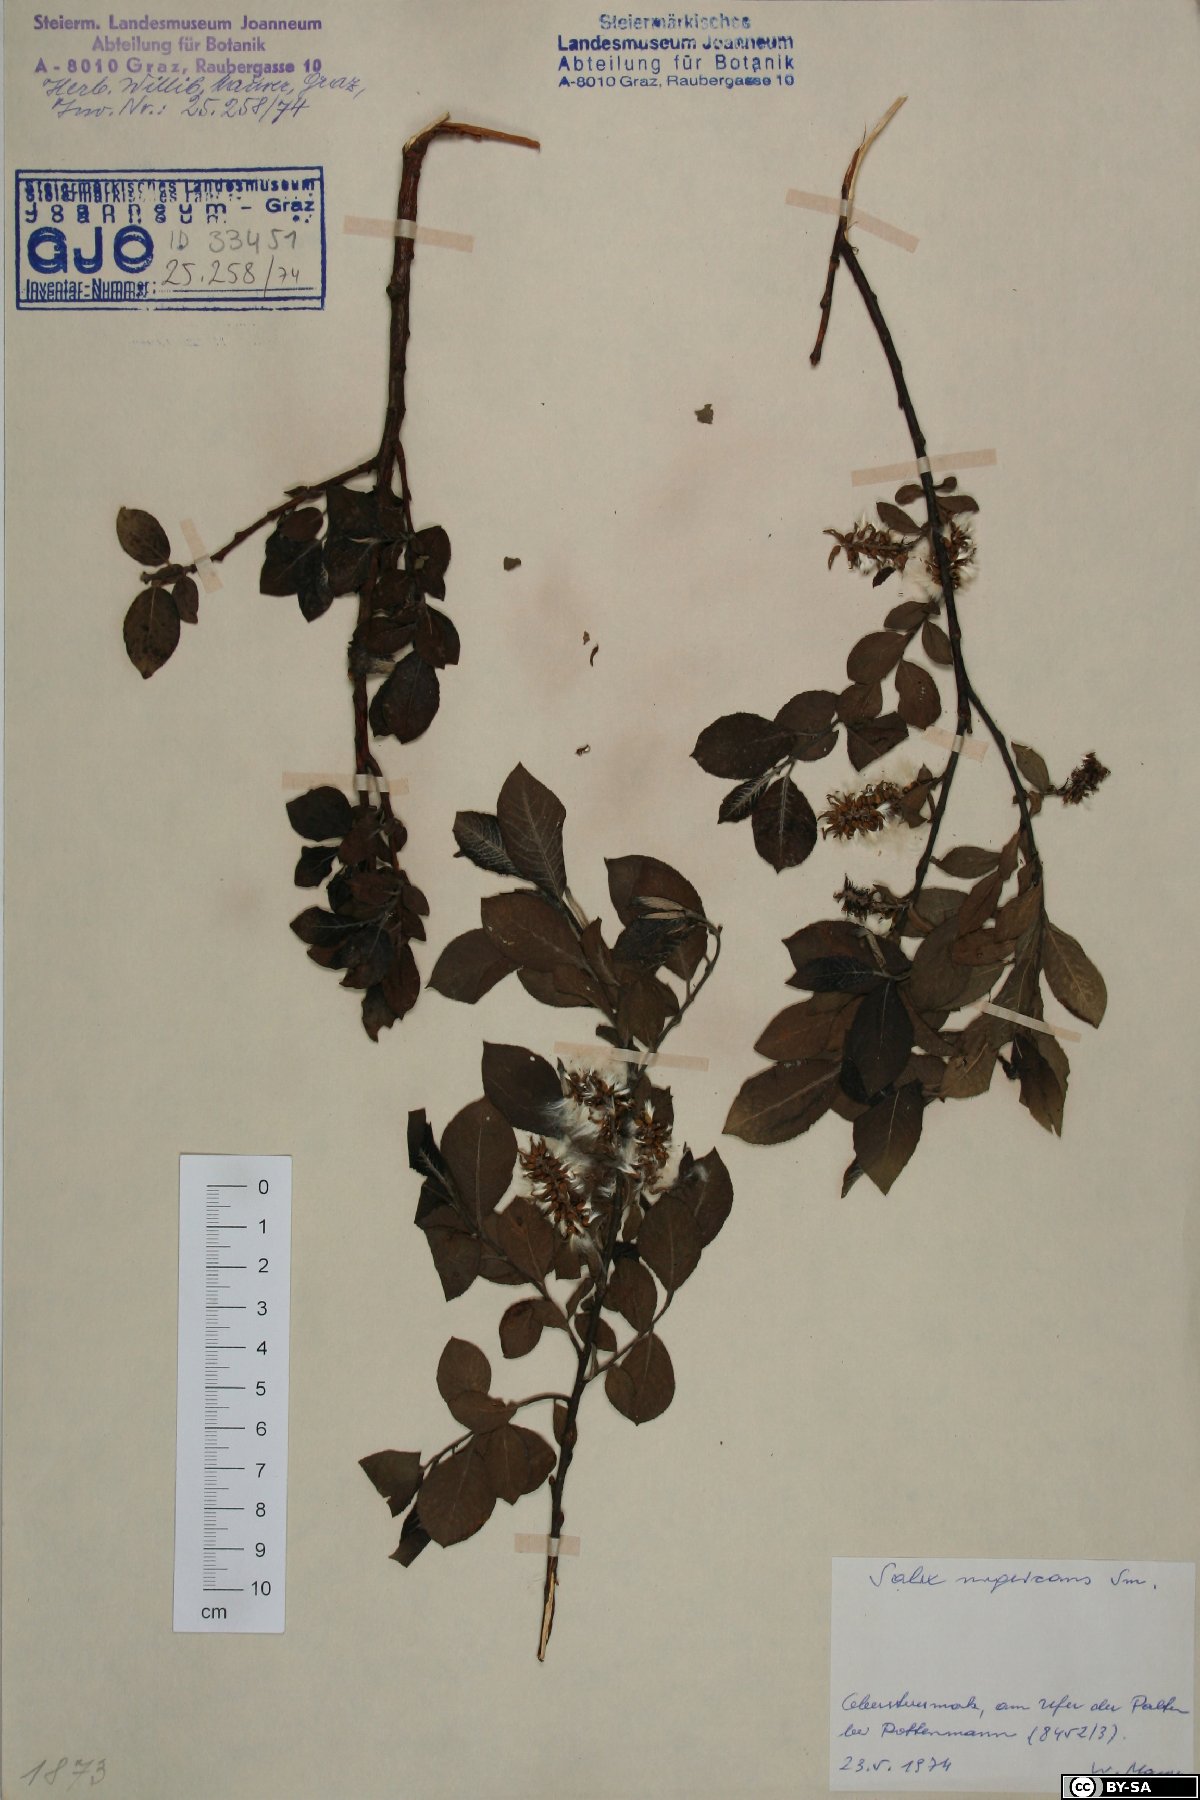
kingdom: Plantae
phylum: Tracheophyta
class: Magnoliopsida
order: Malpighiales
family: Salicaceae
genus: Salix
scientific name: Salix myrsinifolia
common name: Dark-leaved willow
